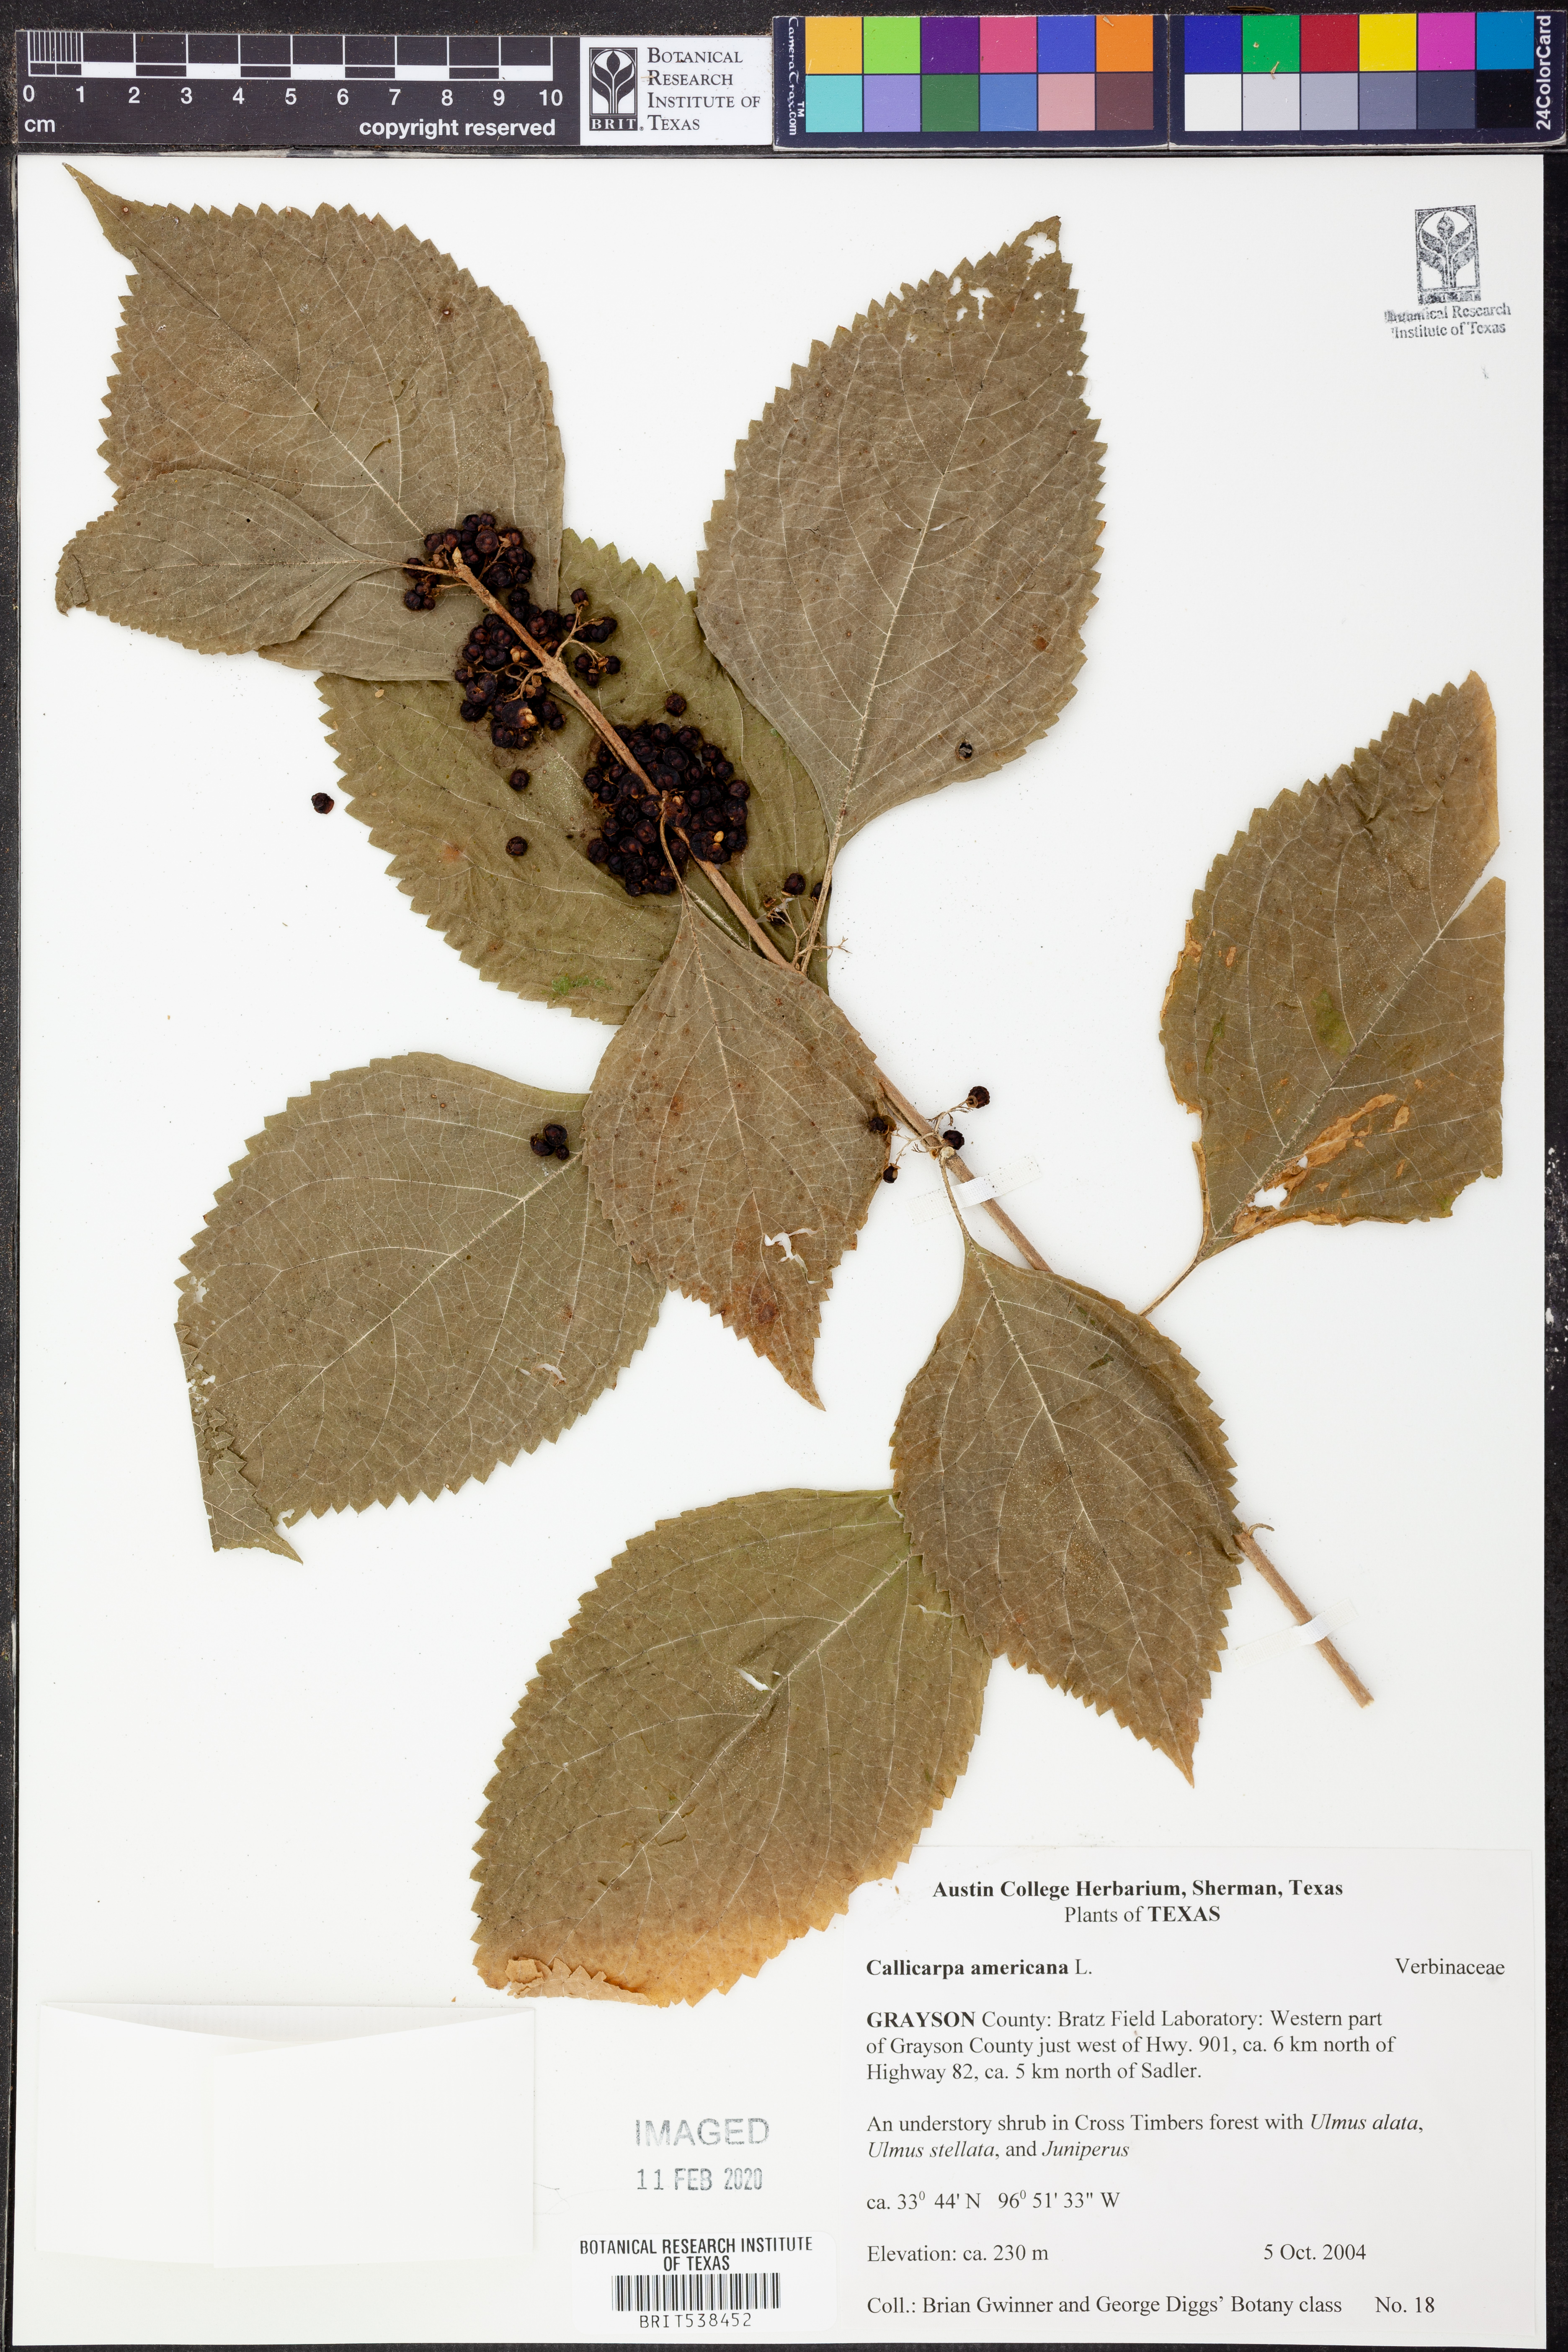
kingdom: Plantae
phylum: Tracheophyta
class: Magnoliopsida
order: Lamiales
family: Lamiaceae
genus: Callicarpa
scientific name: Callicarpa americana
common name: American beautyberry
